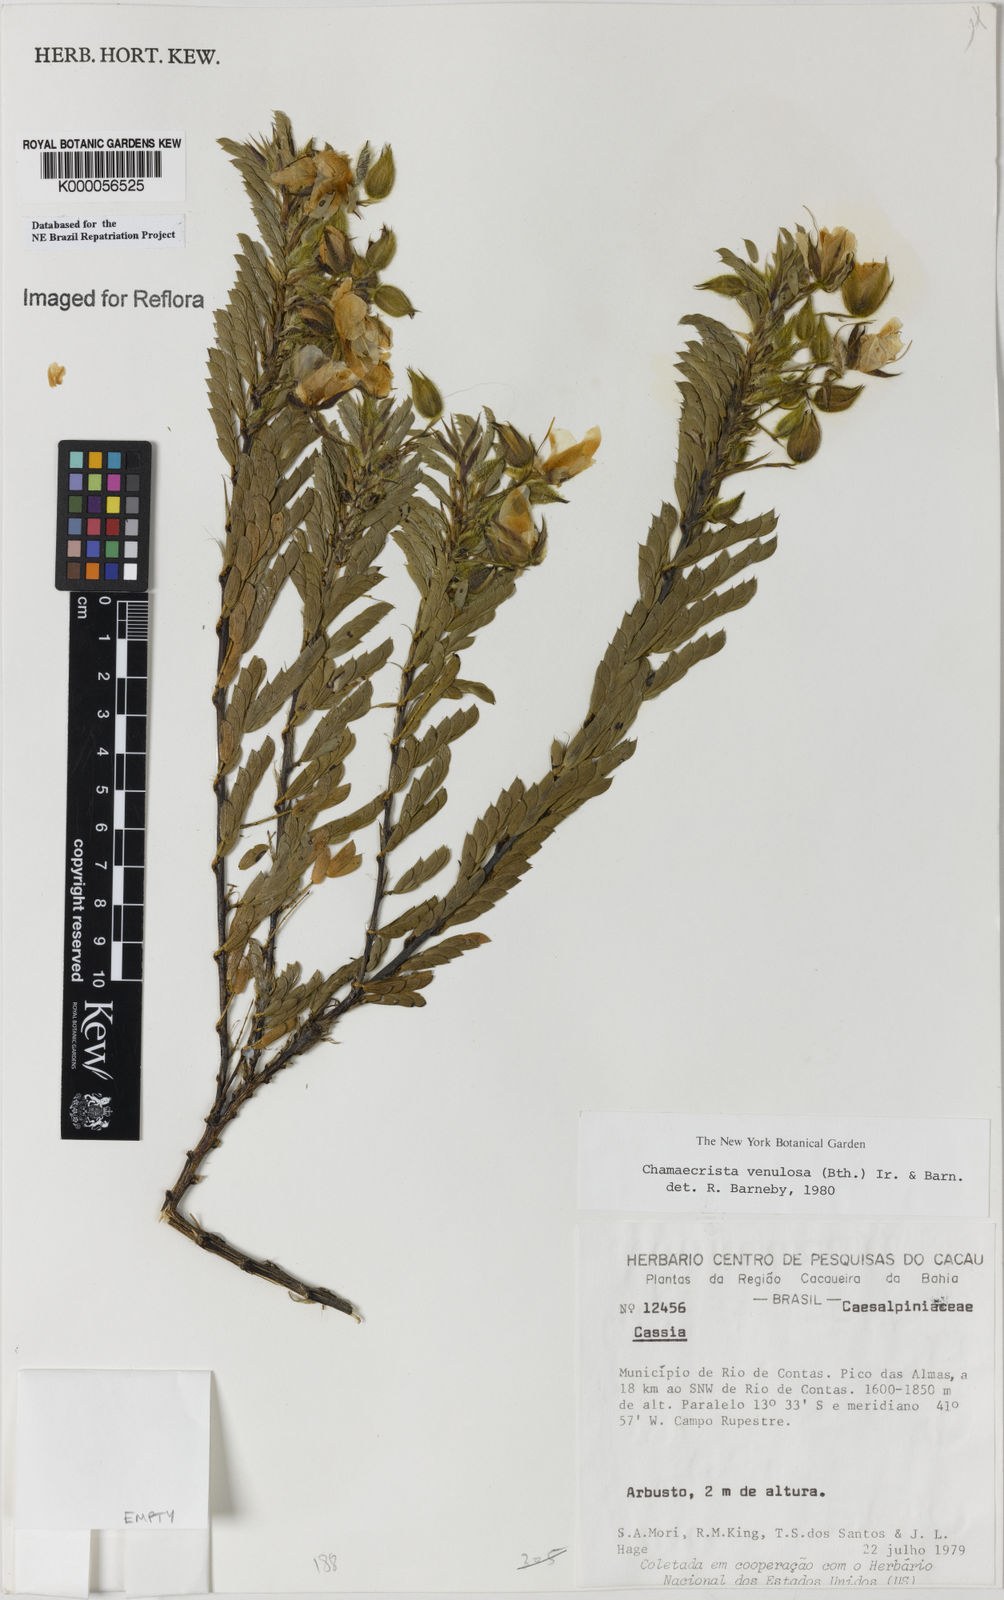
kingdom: Plantae
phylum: Tracheophyta
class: Magnoliopsida
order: Fabales
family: Fabaceae
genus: Chamaecrista
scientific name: Chamaecrista venulosa
